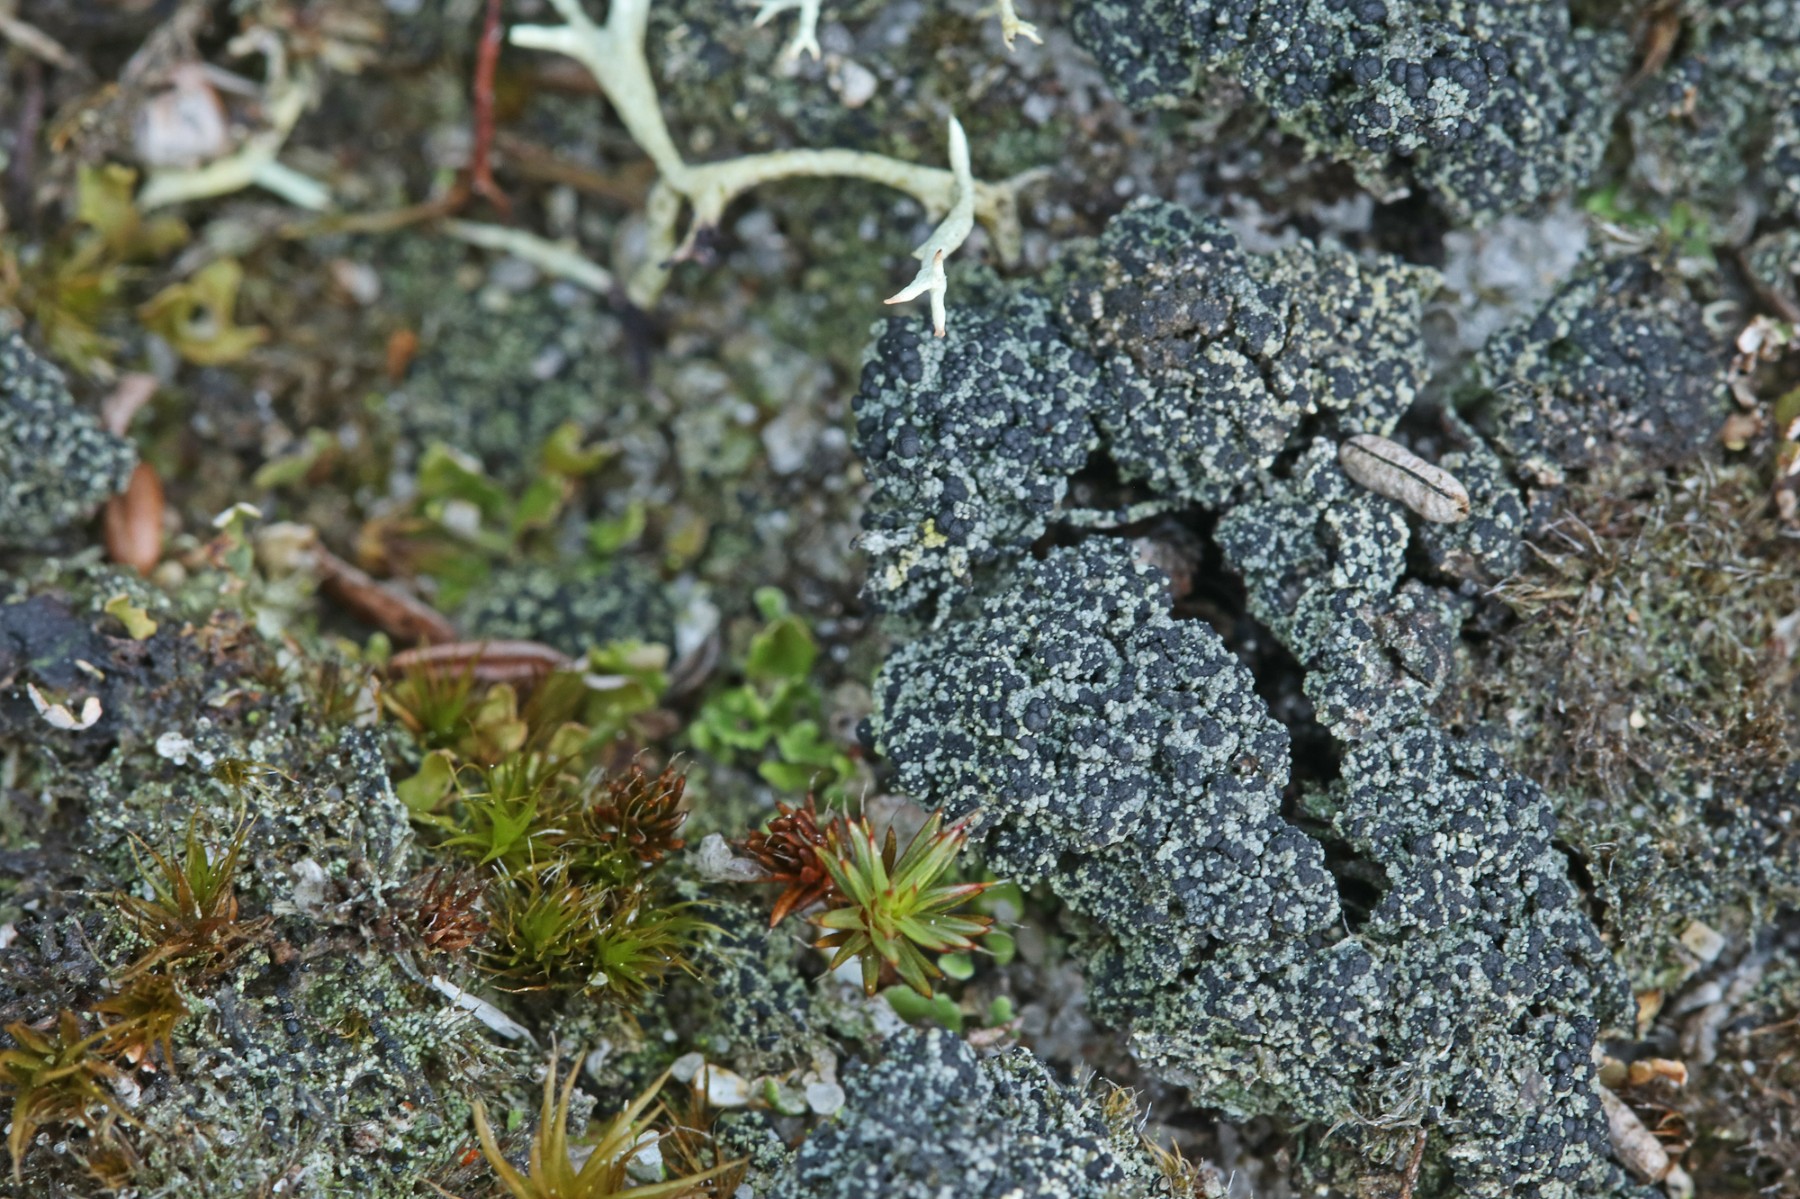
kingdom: Fungi
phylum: Ascomycota
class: Lecanoromycetes
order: Lecanorales
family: Byssolomataceae
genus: Micarea
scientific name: Micarea lignaria
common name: tørve-knaplav
